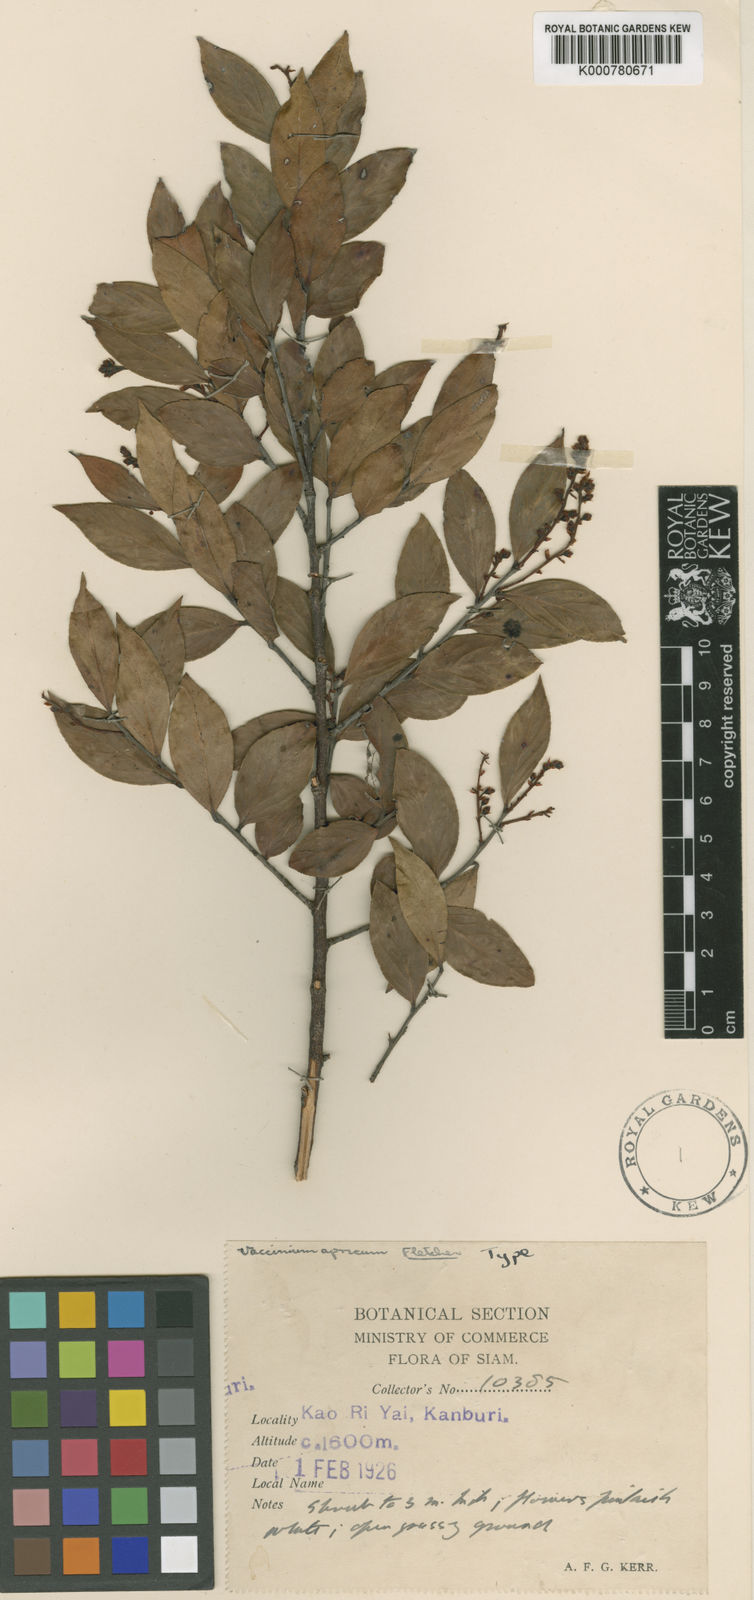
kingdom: Plantae
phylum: Tracheophyta
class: Magnoliopsida
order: Ericales
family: Ericaceae
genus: Vaccinium
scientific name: Vaccinium exaristatum
